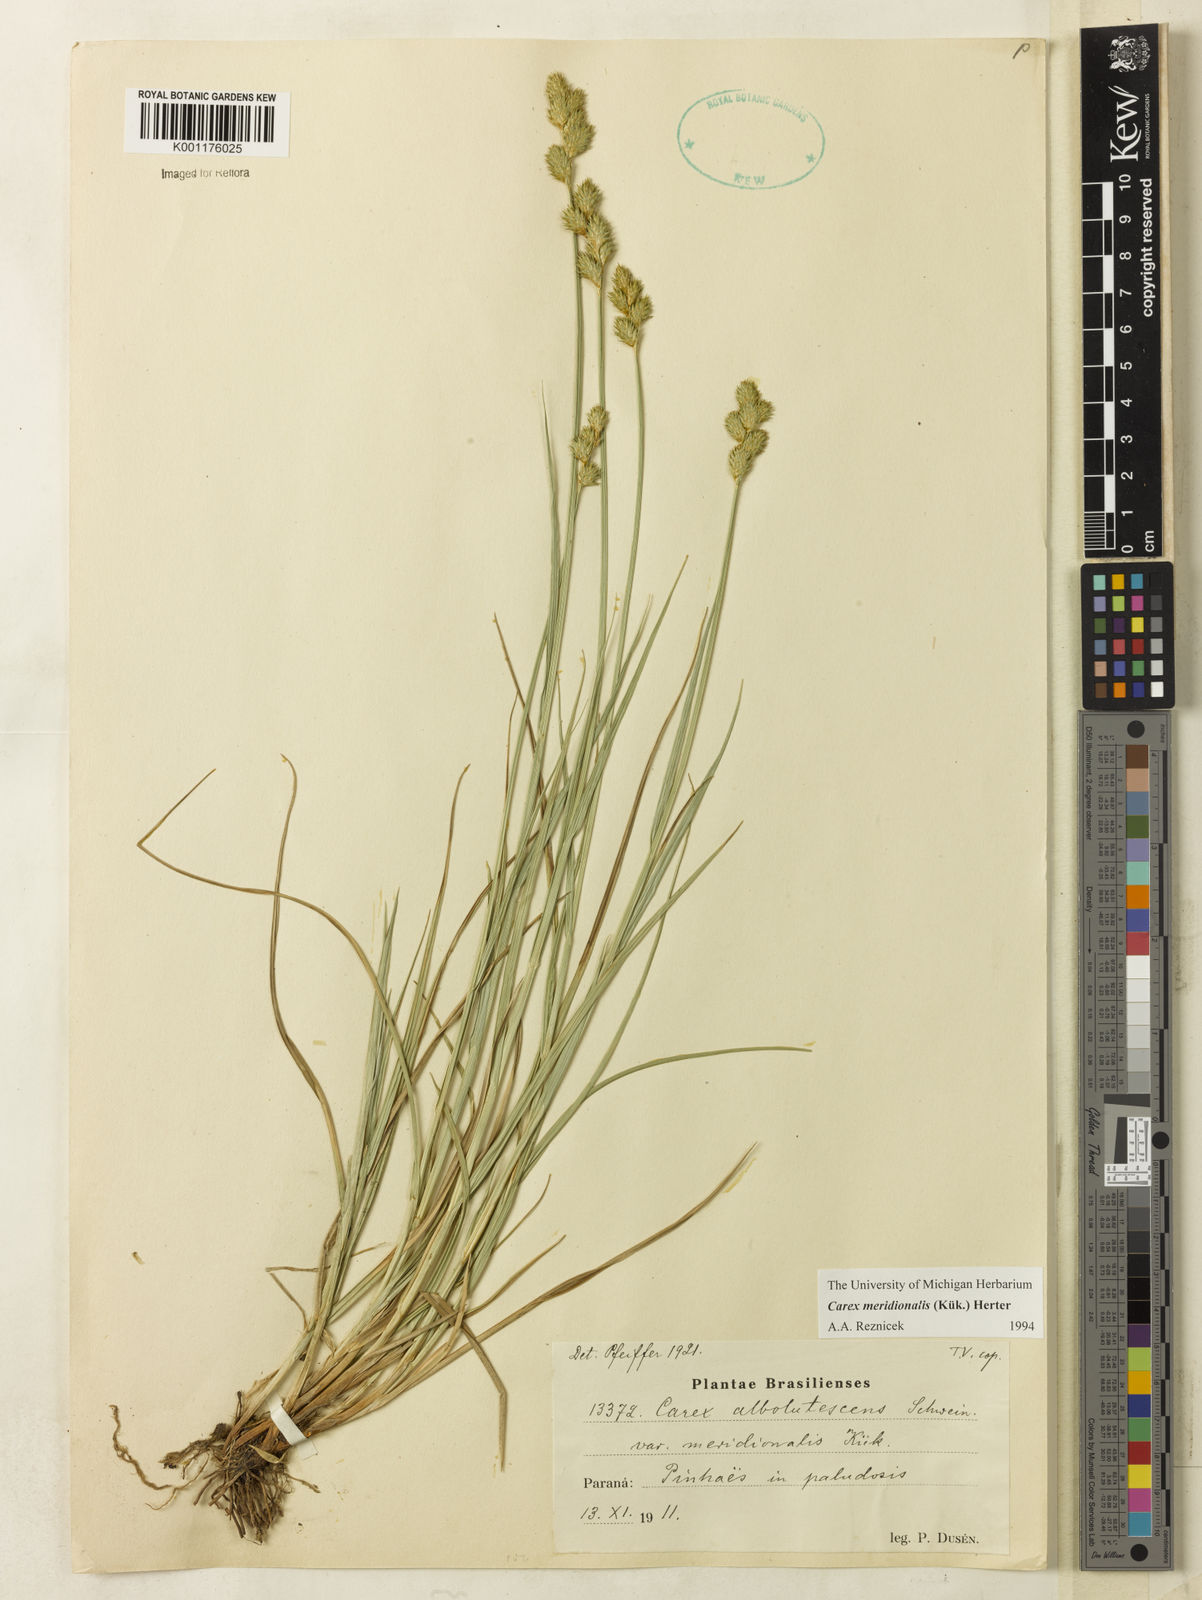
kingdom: Plantae
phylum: Tracheophyta
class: Liliopsida
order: Poales
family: Cyperaceae
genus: Carex
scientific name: Carex meridionalis
